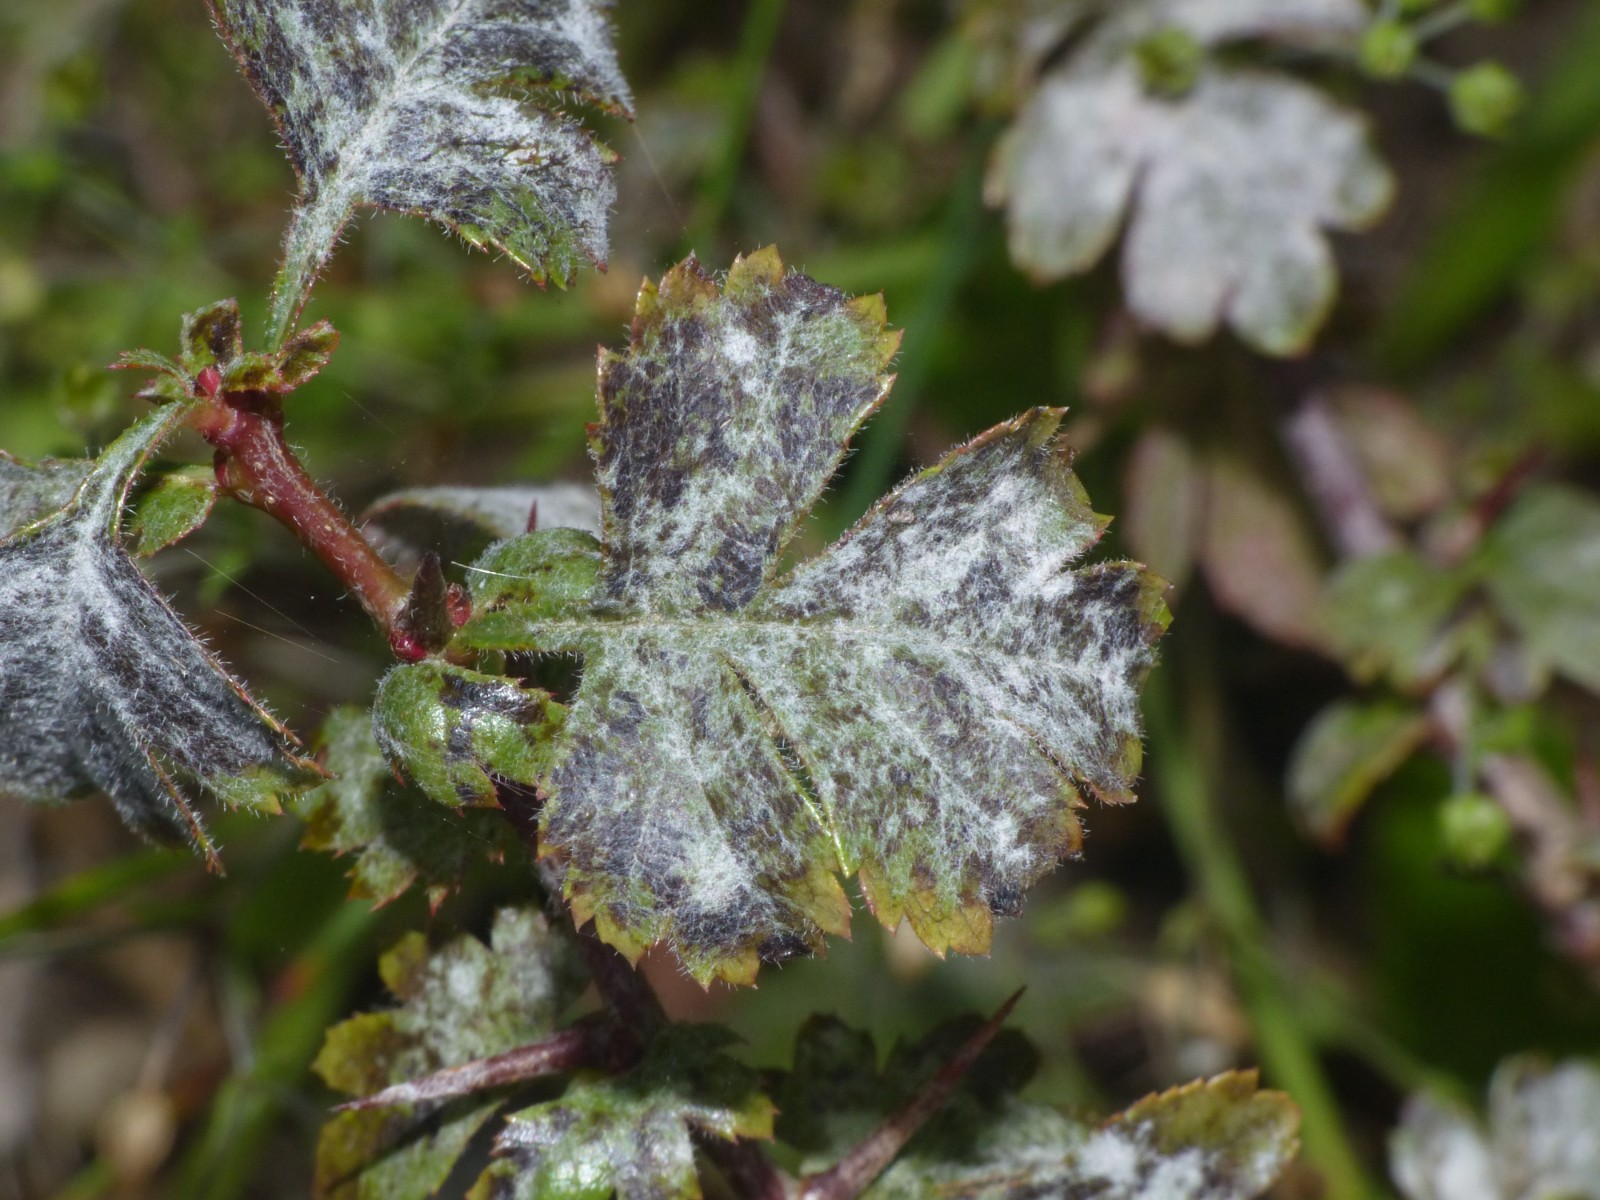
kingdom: Fungi
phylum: Ascomycota
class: Leotiomycetes
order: Helotiales
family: Erysiphaceae
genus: Podosphaera
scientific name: Podosphaera clandestina
